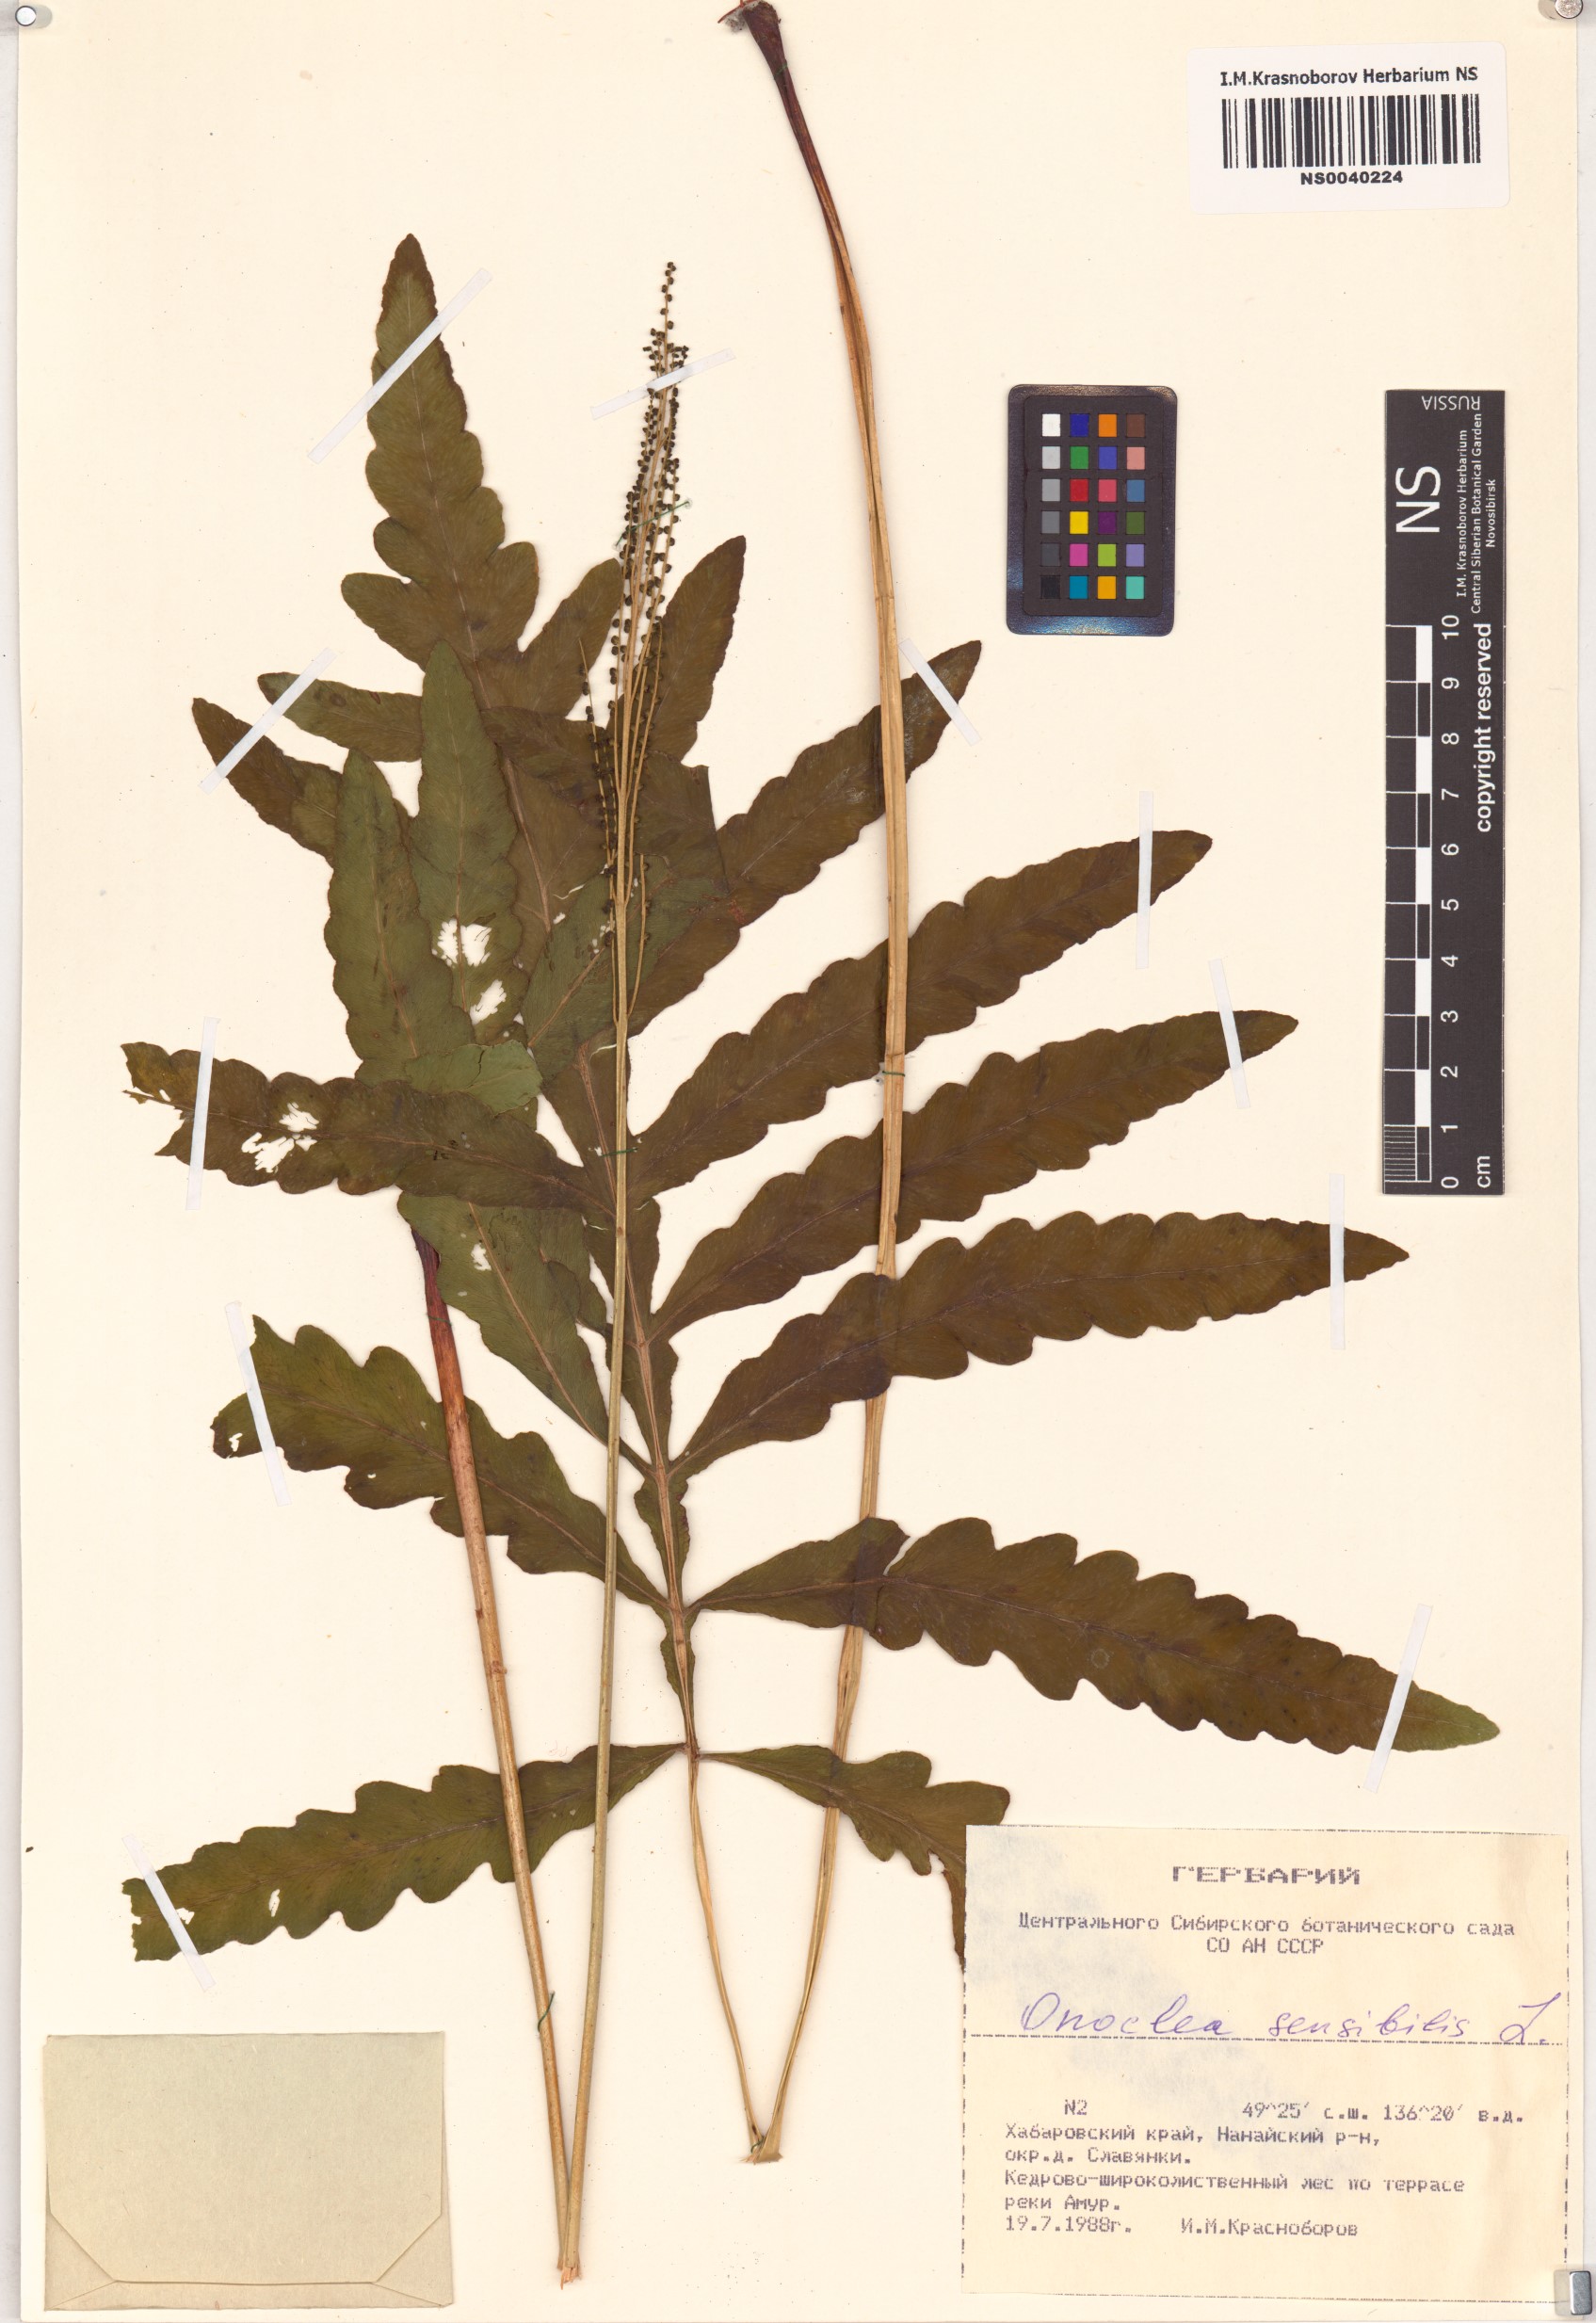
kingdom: Plantae
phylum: Tracheophyta
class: Polypodiopsida
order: Polypodiales
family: Onocleaceae
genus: Onoclea
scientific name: Onoclea sensibilis
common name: Sensitive fern
